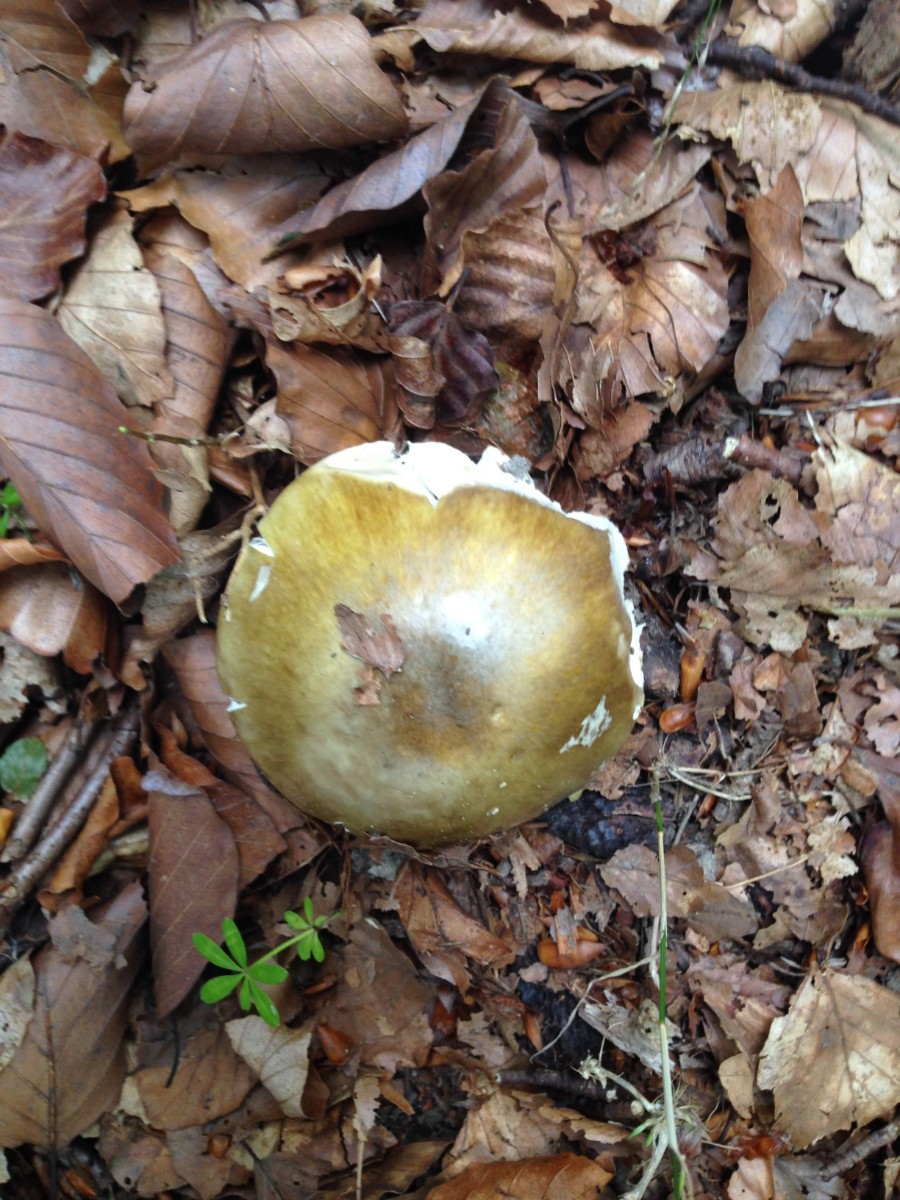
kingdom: Fungi
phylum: Basidiomycota
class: Agaricomycetes
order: Agaricales
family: Amanitaceae
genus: Amanita
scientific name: Amanita phalloides
